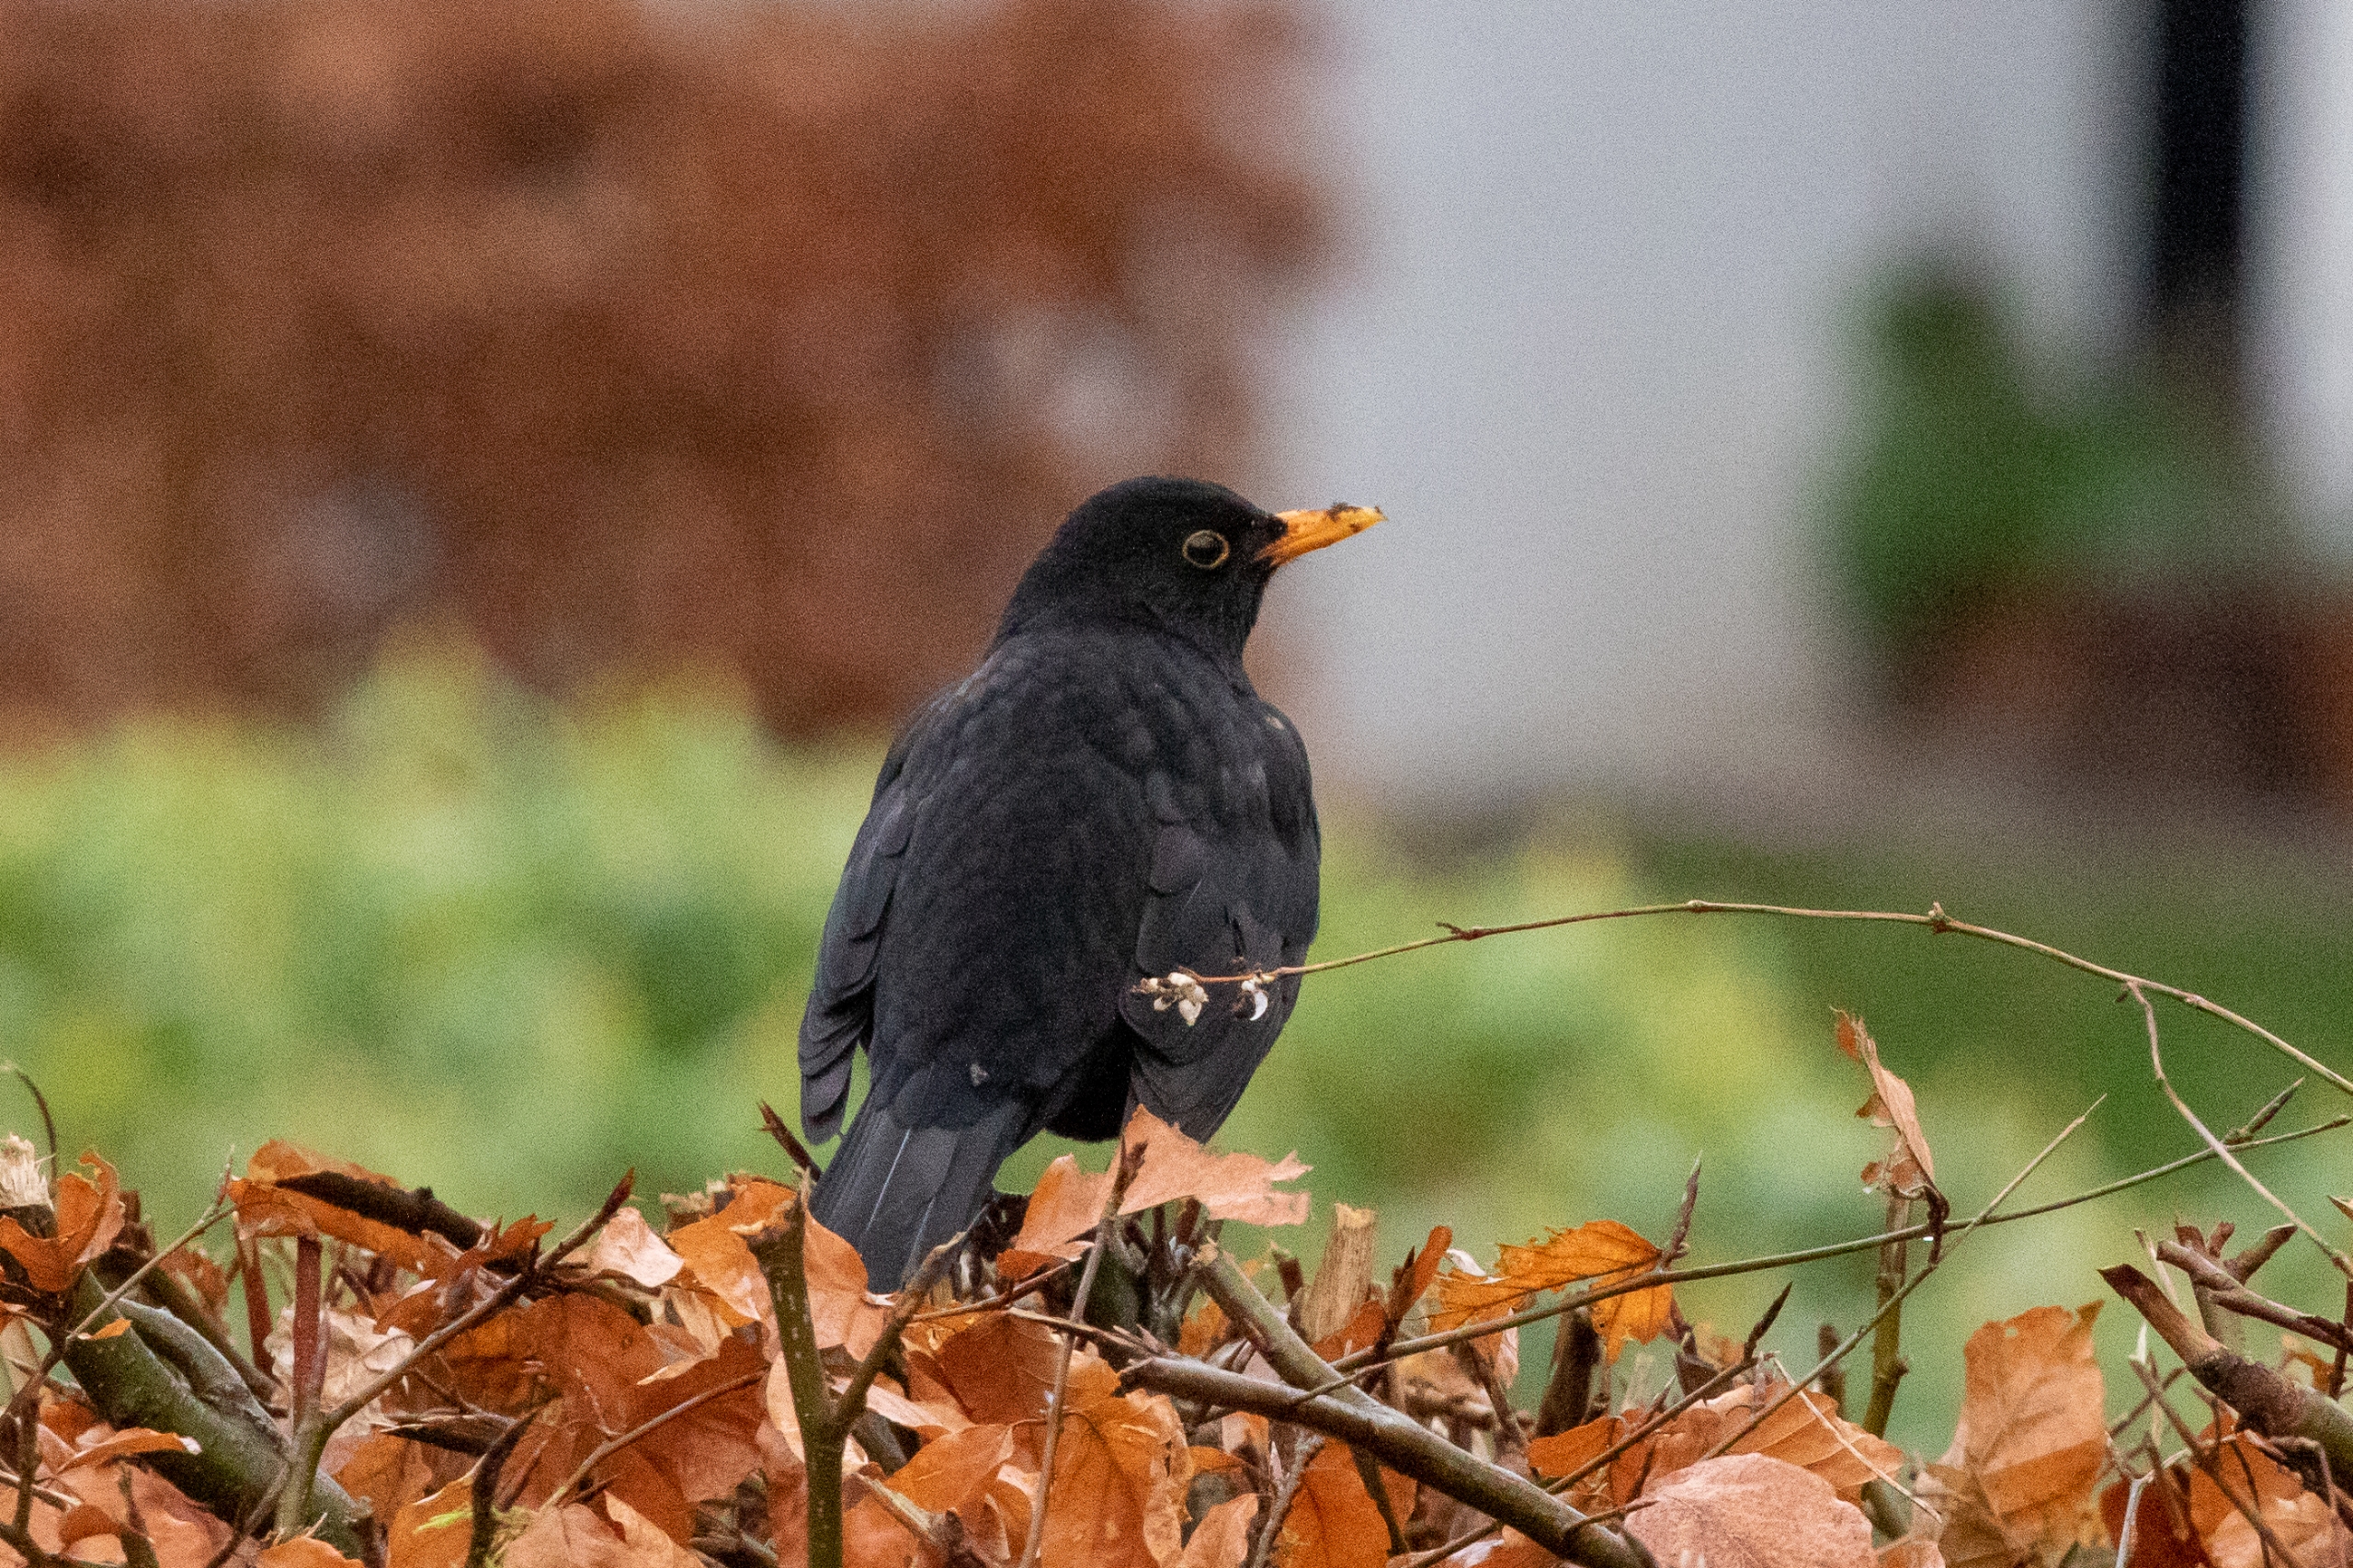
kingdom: Animalia
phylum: Chordata
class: Aves
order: Passeriformes
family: Turdidae
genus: Turdus
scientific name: Turdus merula
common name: Solsort
